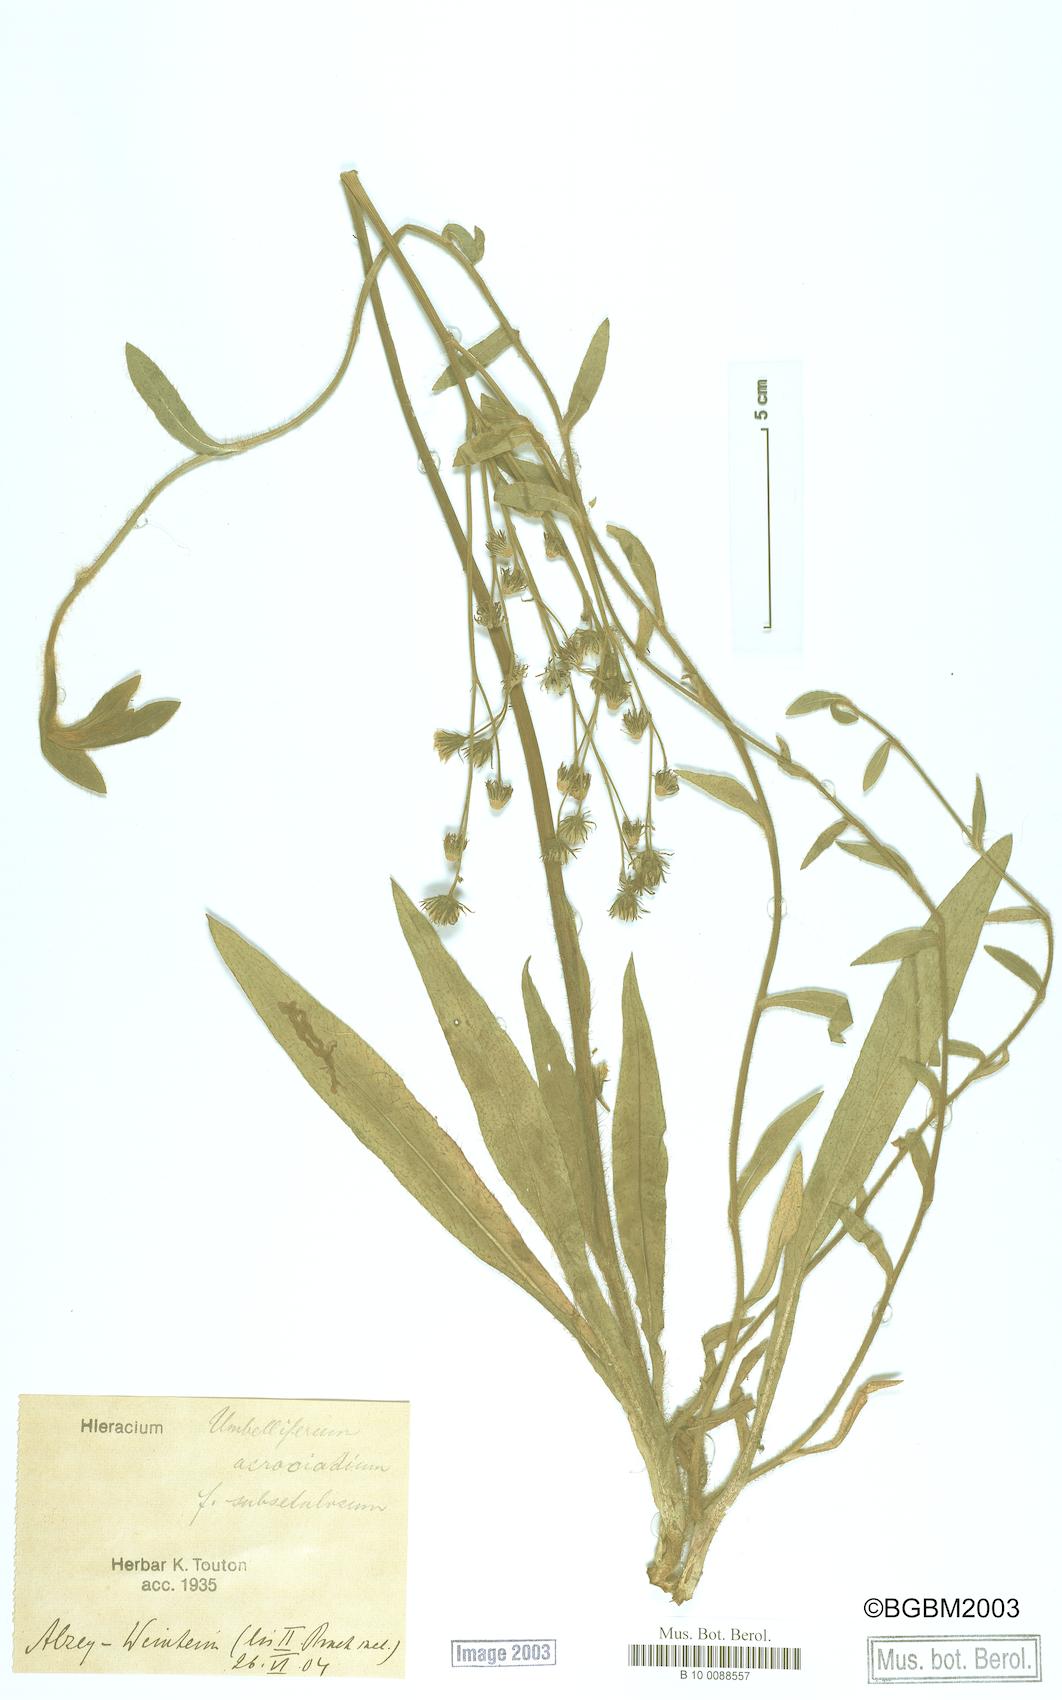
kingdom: Plantae
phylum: Tracheophyta
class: Magnoliopsida
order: Asterales
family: Asteraceae
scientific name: Asteraceae
